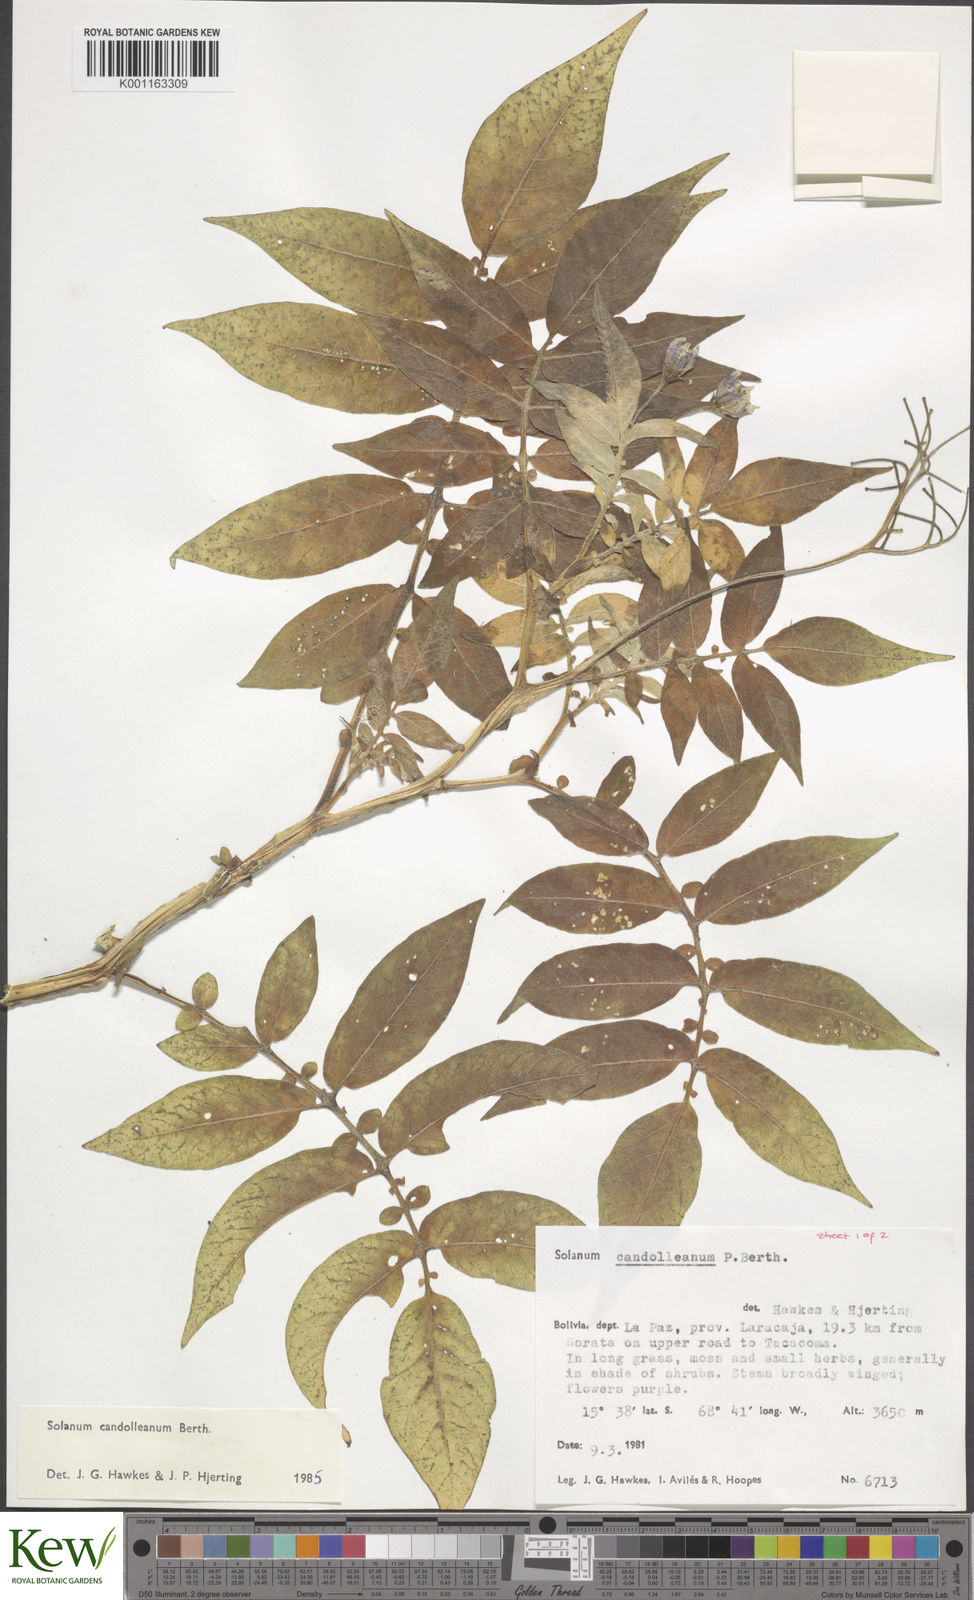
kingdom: Plantae
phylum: Tracheophyta
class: Magnoliopsida
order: Solanales
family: Solanaceae
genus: Solanum
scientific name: Solanum candolleanum
